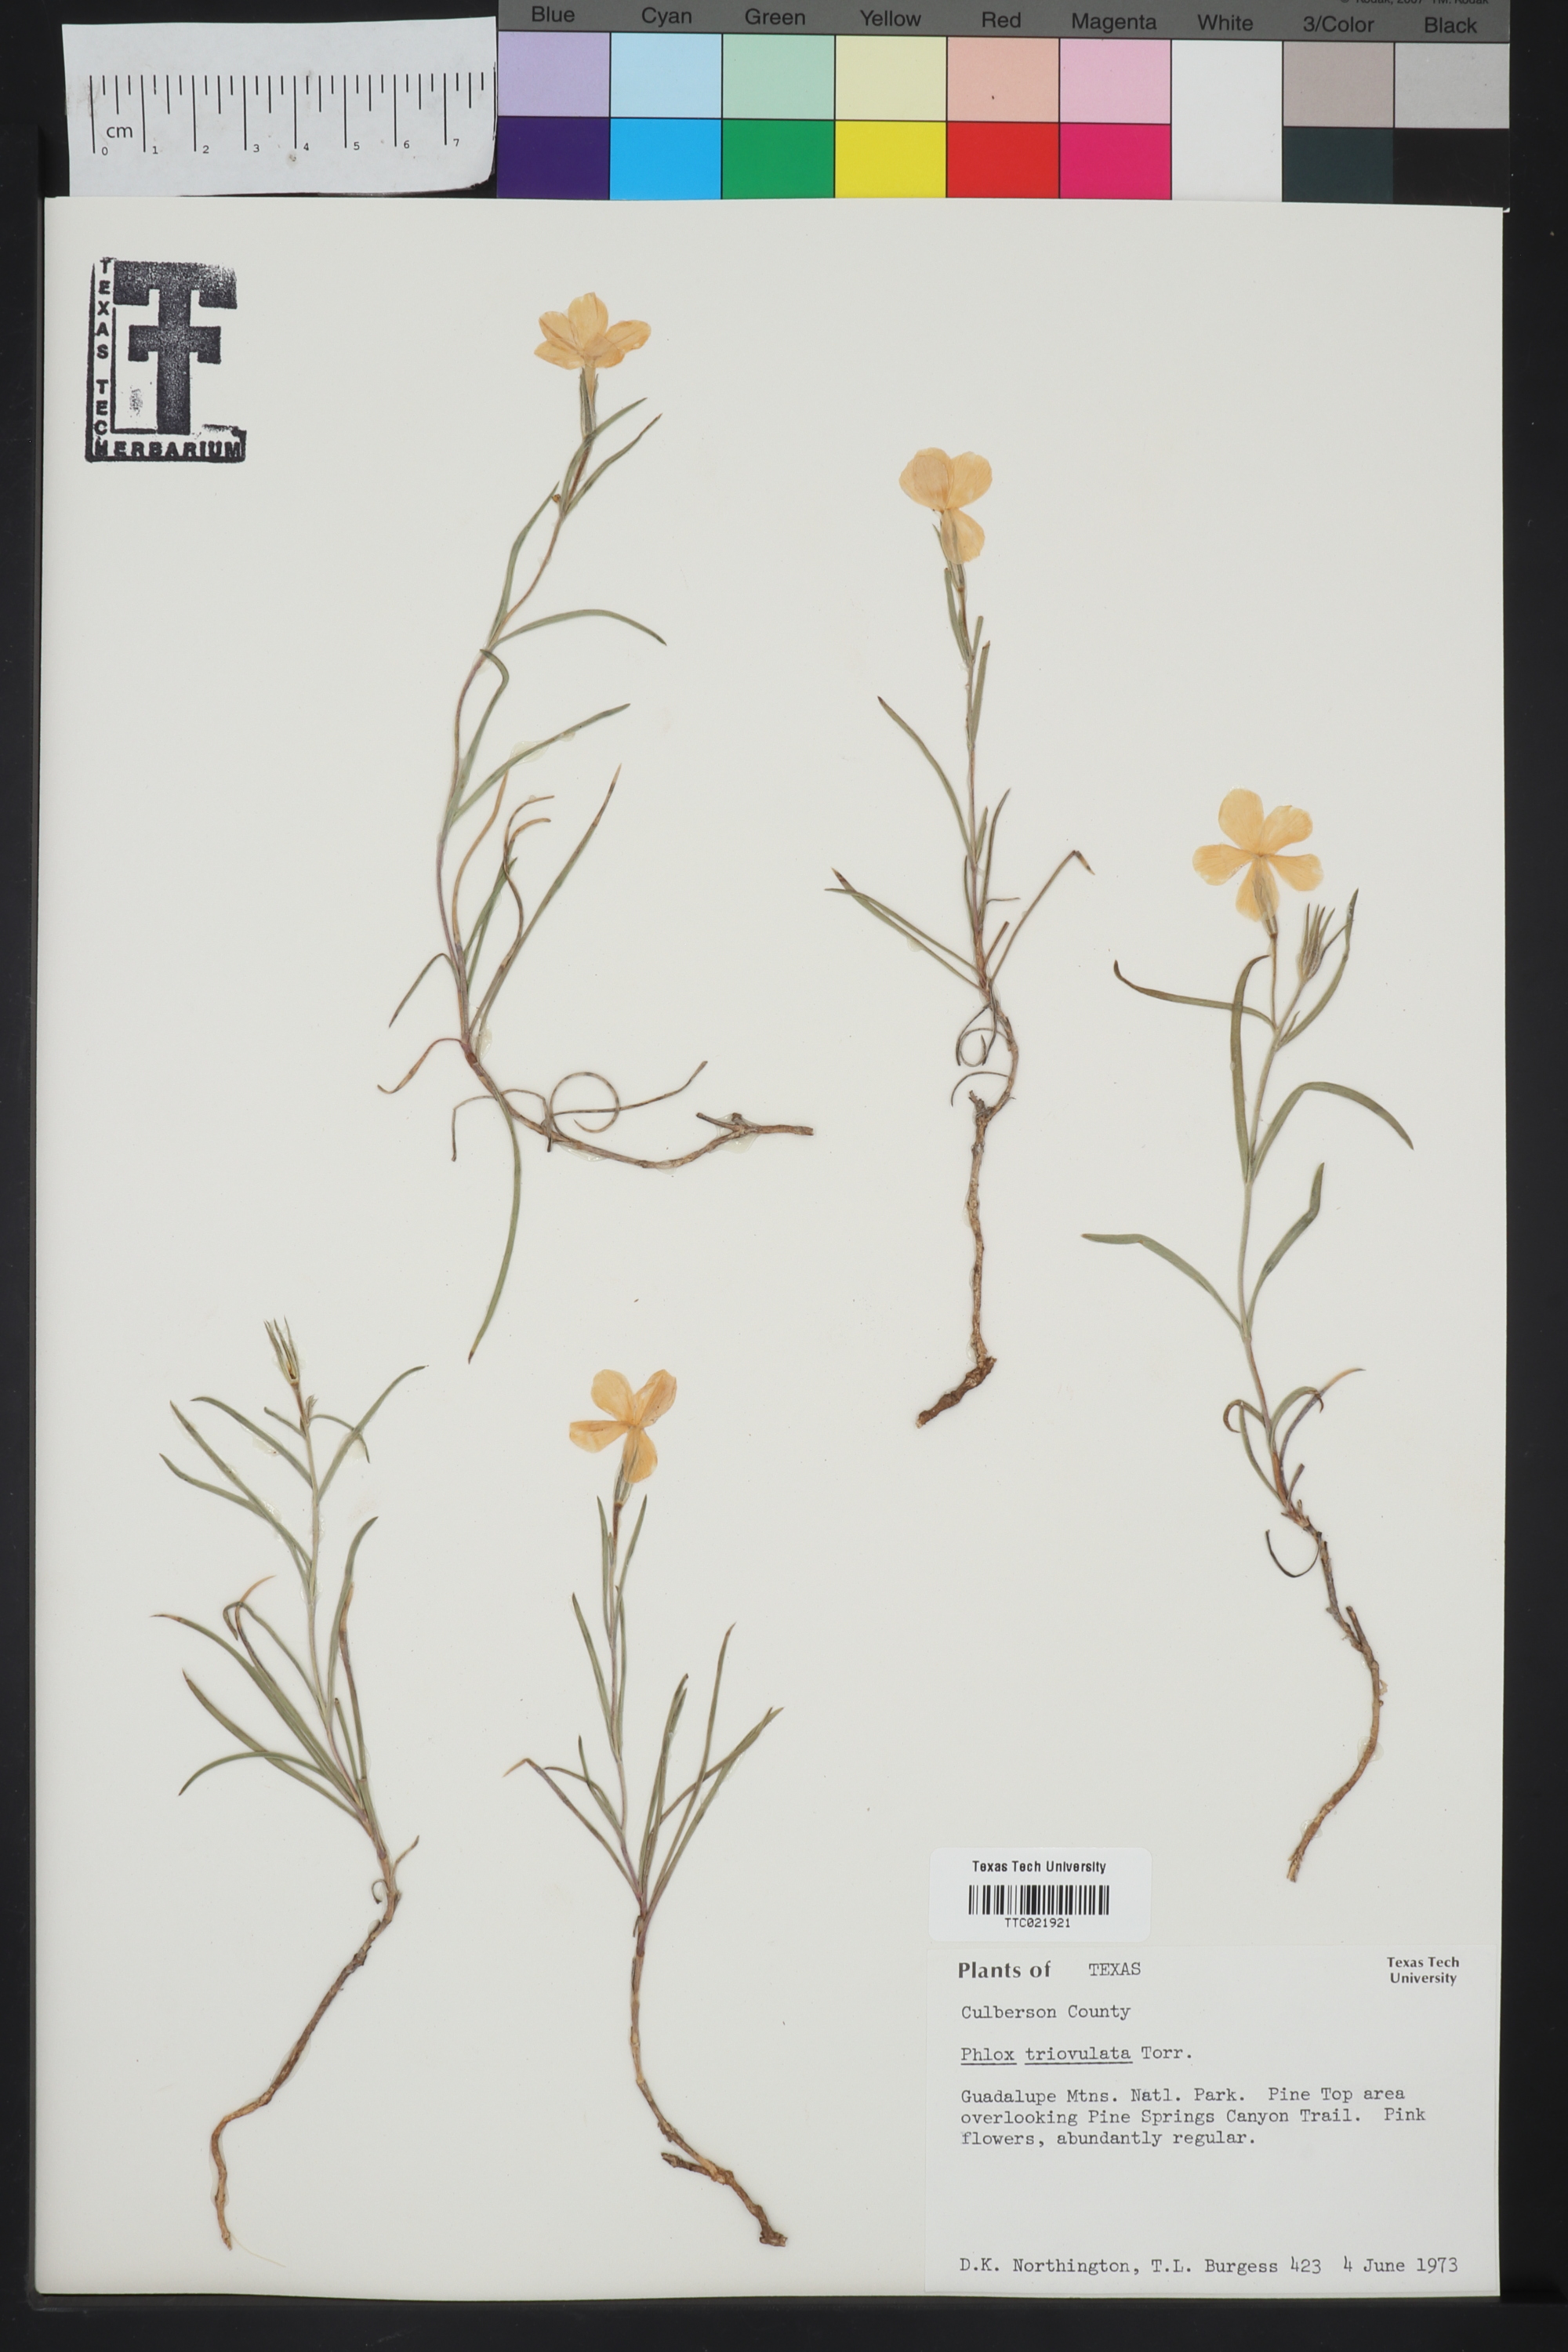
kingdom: Plantae
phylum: Tracheophyta
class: Magnoliopsida
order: Ericales
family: Polemoniaceae
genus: Phlox
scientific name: Phlox triovulata
